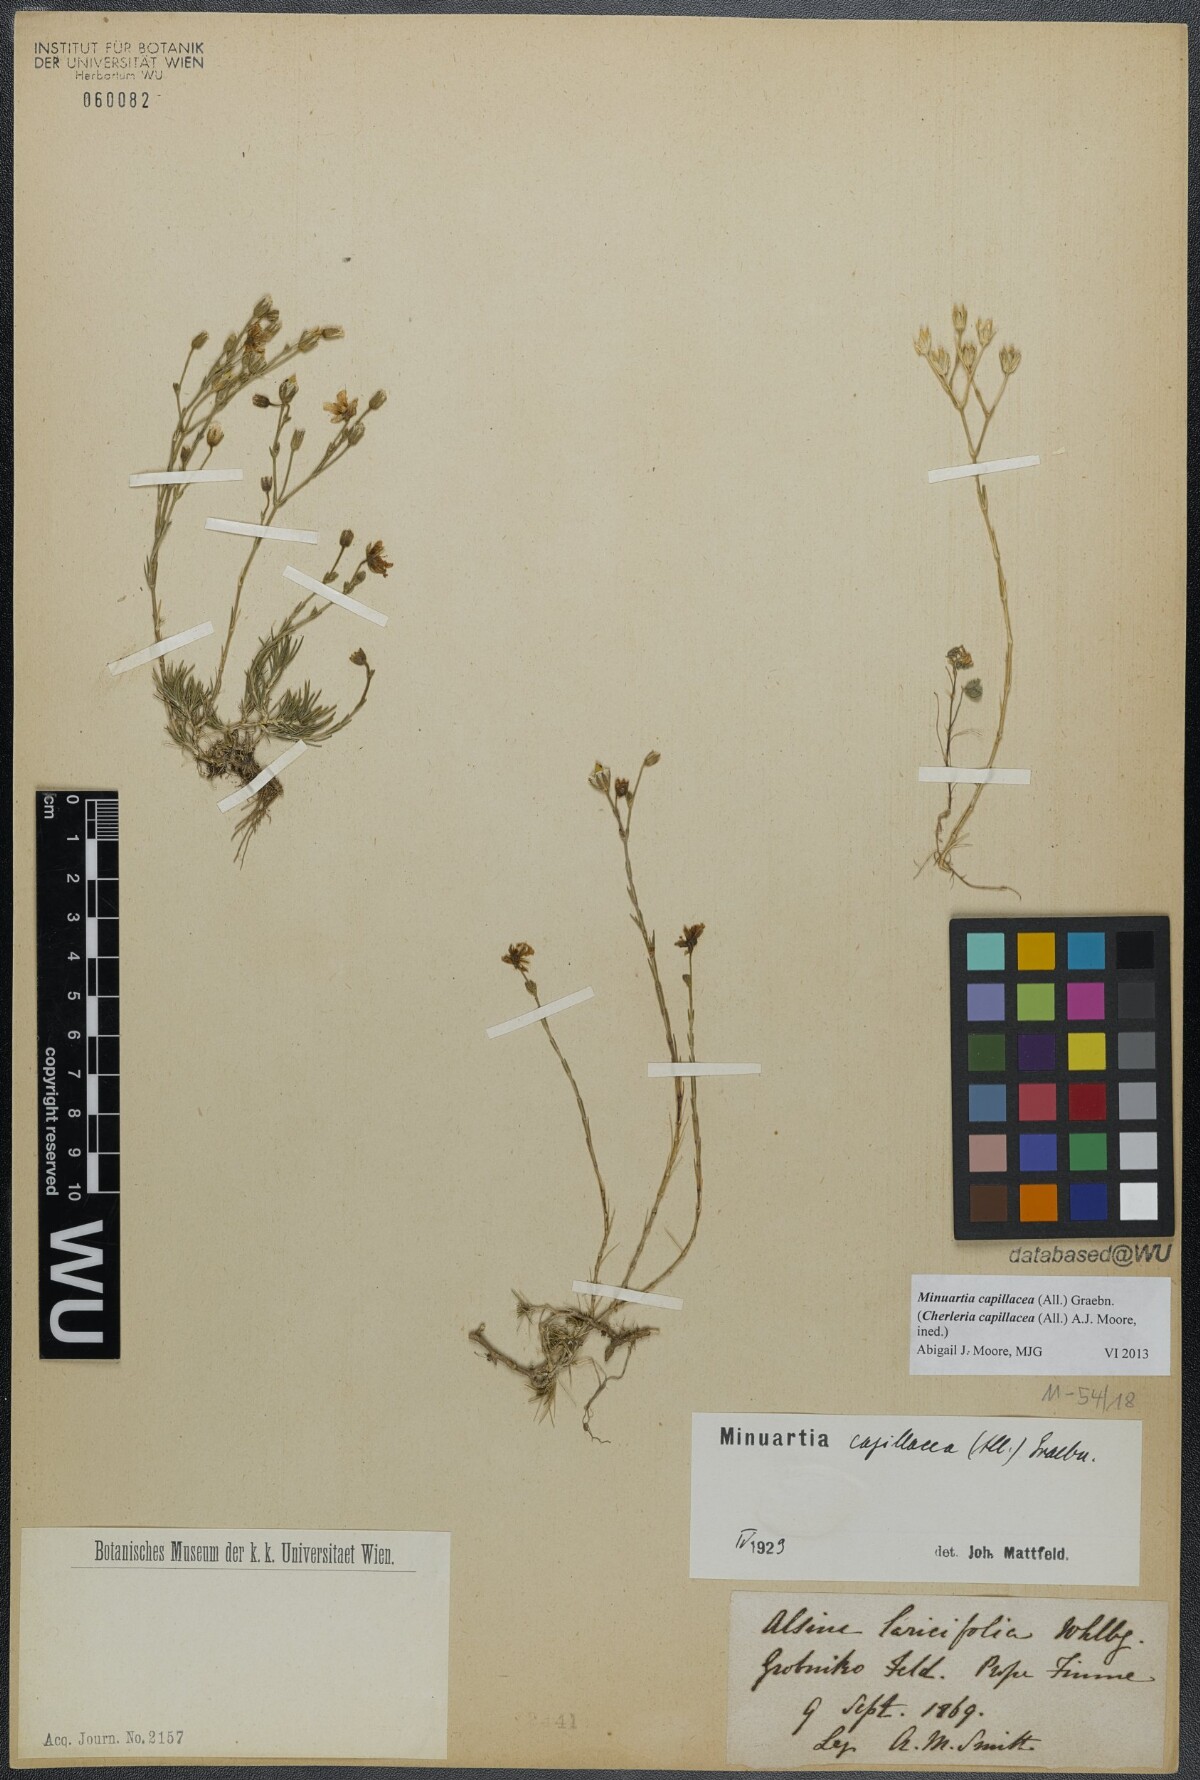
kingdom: Plantae
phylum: Tracheophyta
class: Magnoliopsida
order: Caryophyllales
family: Caryophyllaceae
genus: Cherleria
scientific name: Cherleria capillacea
